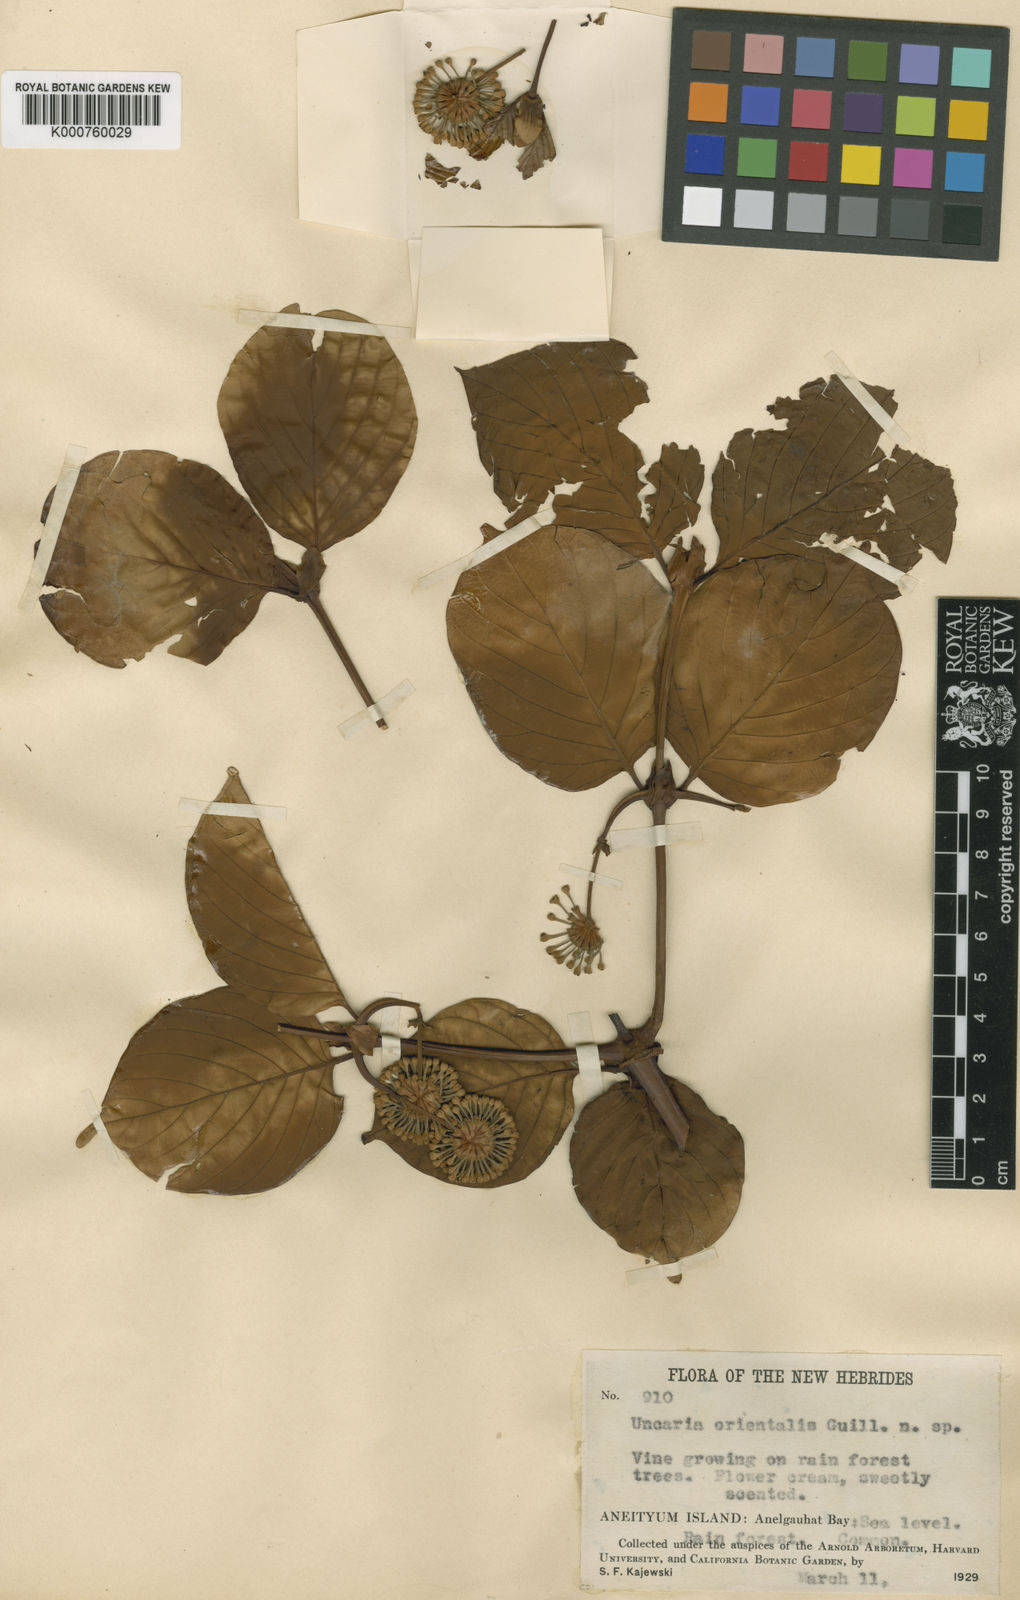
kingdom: Plantae
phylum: Tracheophyta
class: Magnoliopsida
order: Gentianales
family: Rubiaceae
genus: Uncaria
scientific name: Uncaria orientalis
